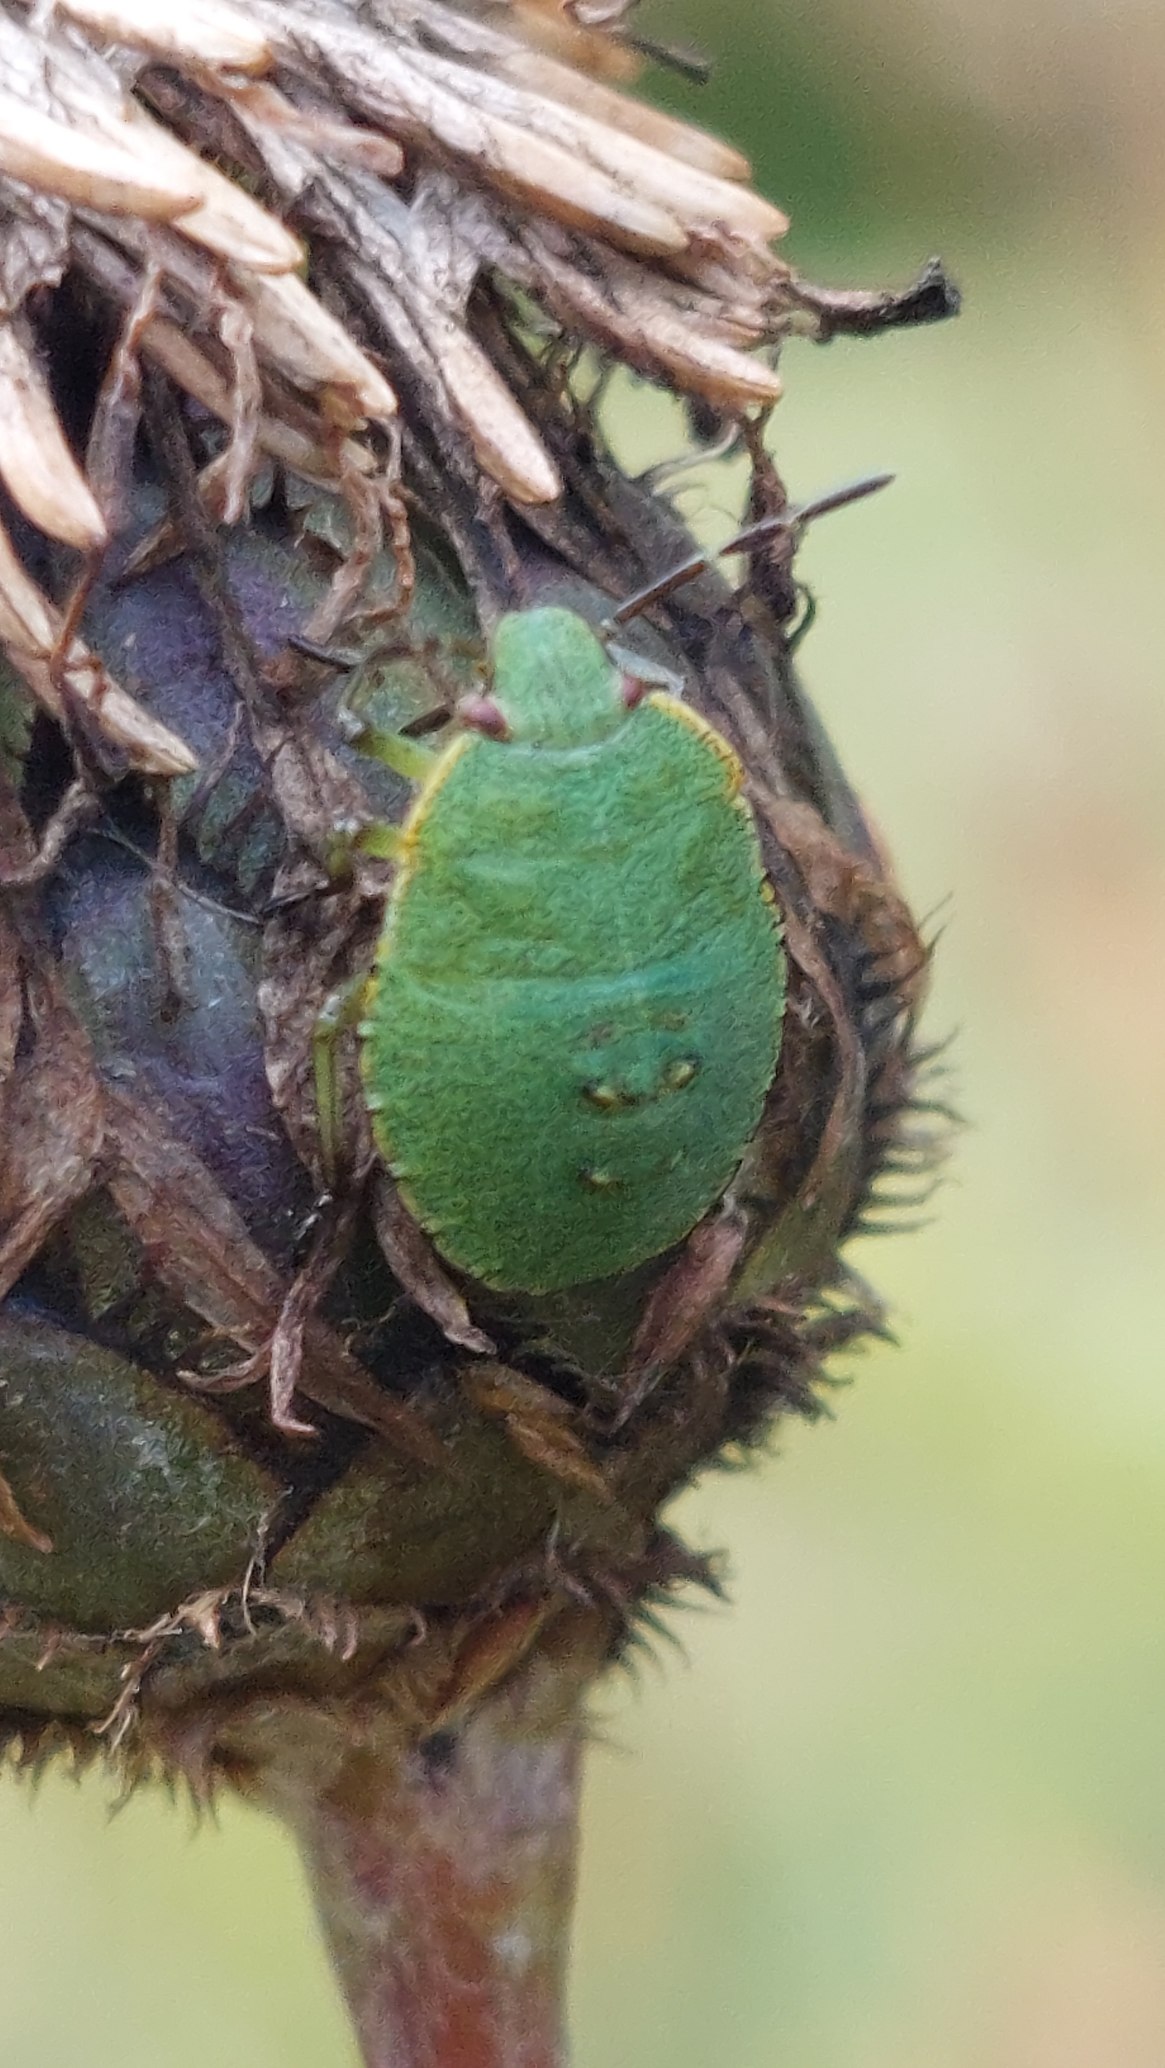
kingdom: Animalia
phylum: Arthropoda
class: Insecta
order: Hemiptera
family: Pentatomidae
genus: Palomena
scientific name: Palomena prasina
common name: Grøn bredtæge
